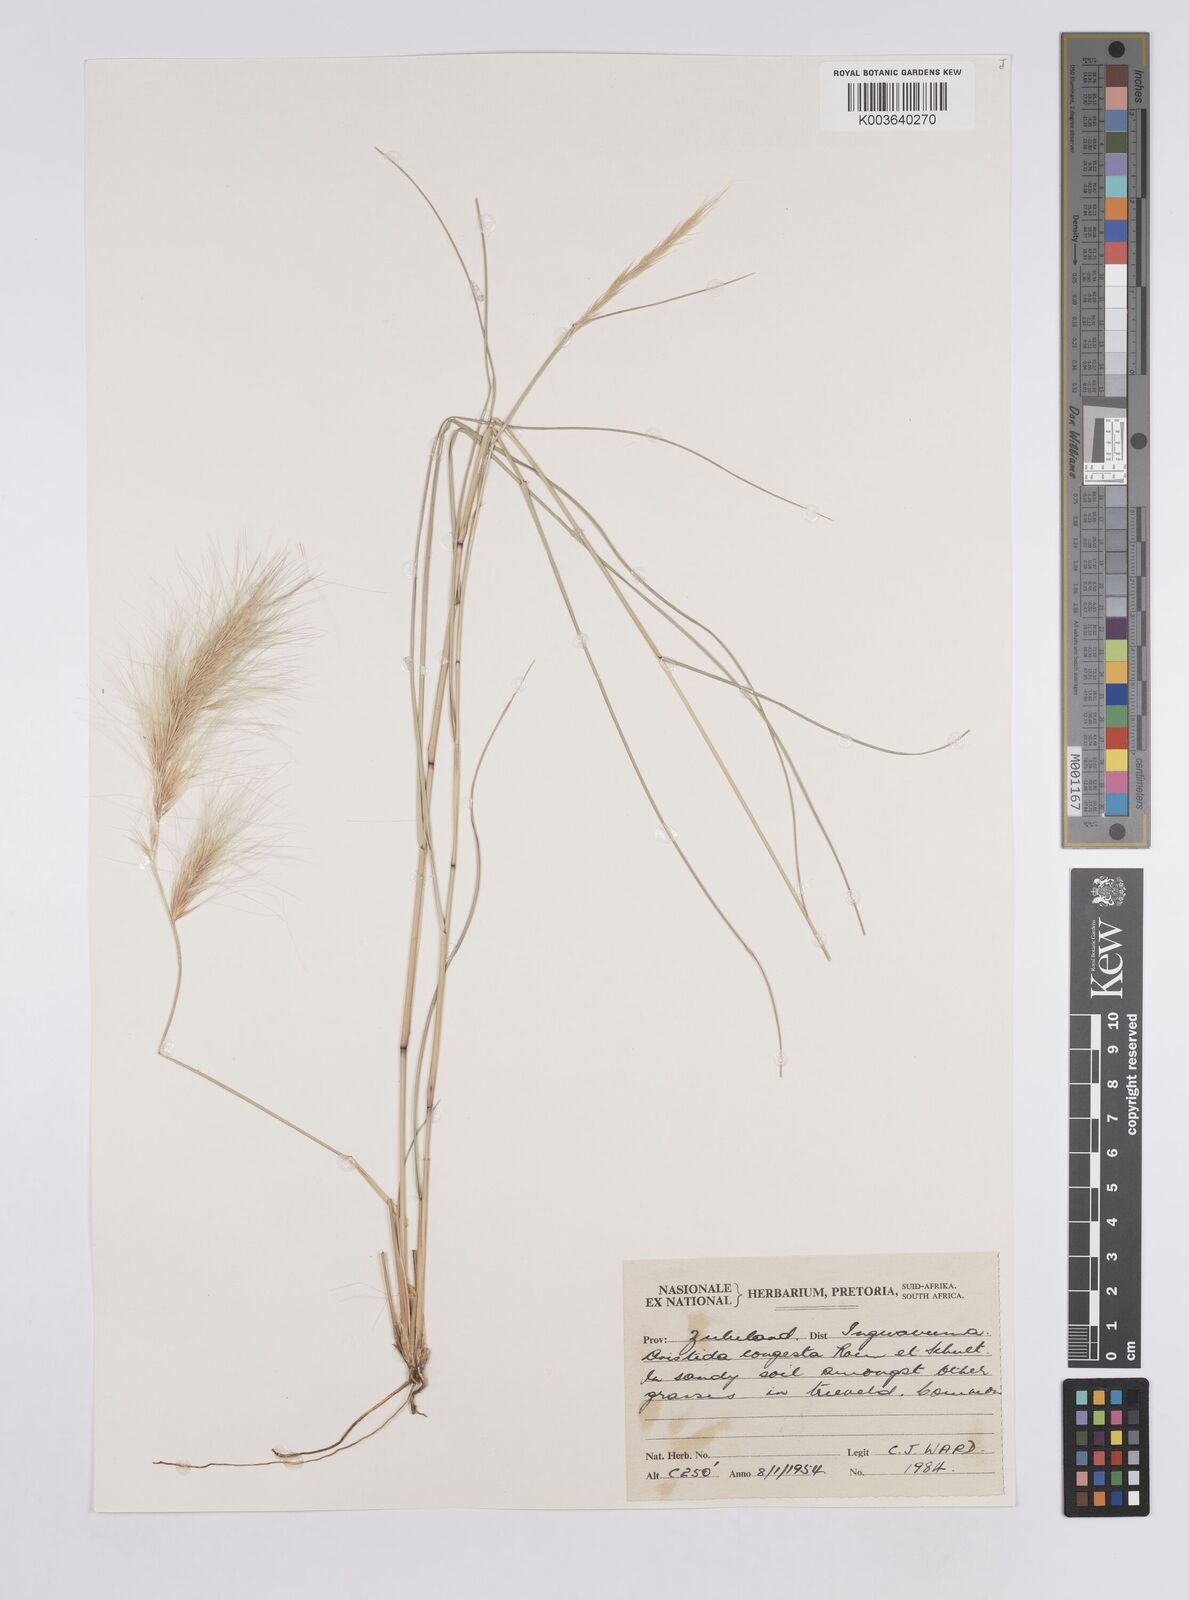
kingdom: Plantae
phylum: Tracheophyta
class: Liliopsida
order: Poales
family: Poaceae
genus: Aristida
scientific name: Aristida congesta
